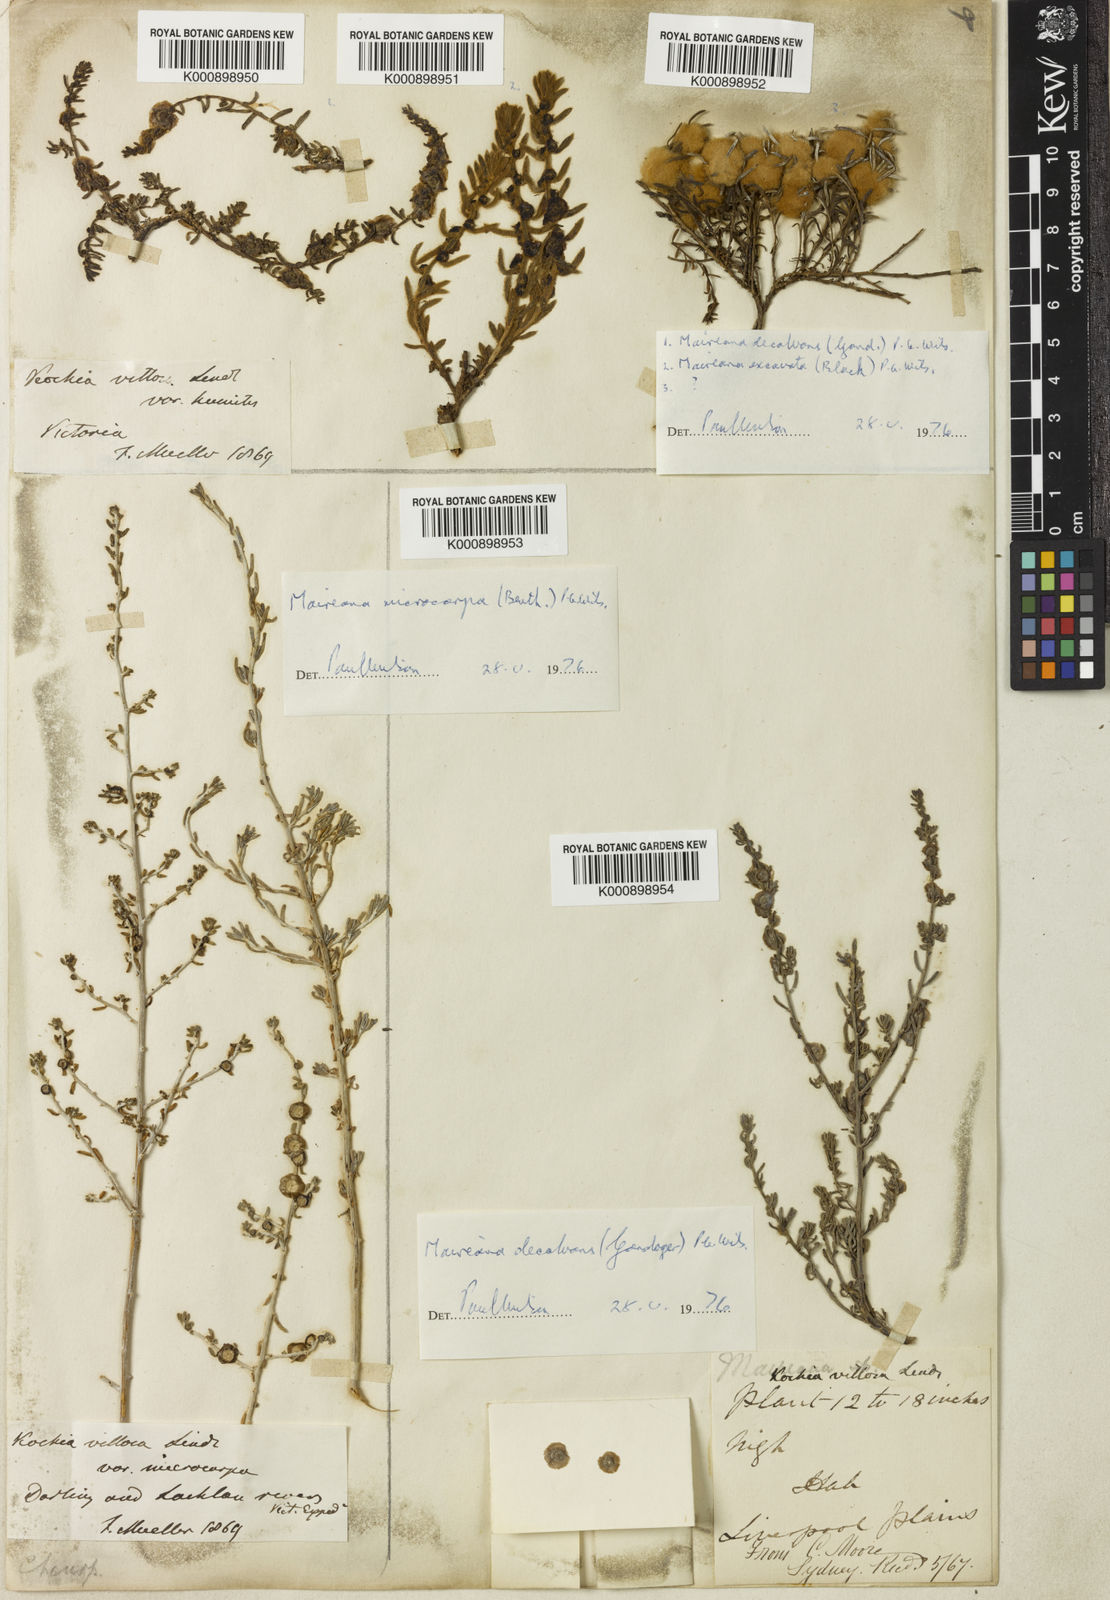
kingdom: Plantae
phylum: Tracheophyta
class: Magnoliopsida
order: Caryophyllales
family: Amaranthaceae
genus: Maireana
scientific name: Maireana villosa
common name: Silky bluebush
